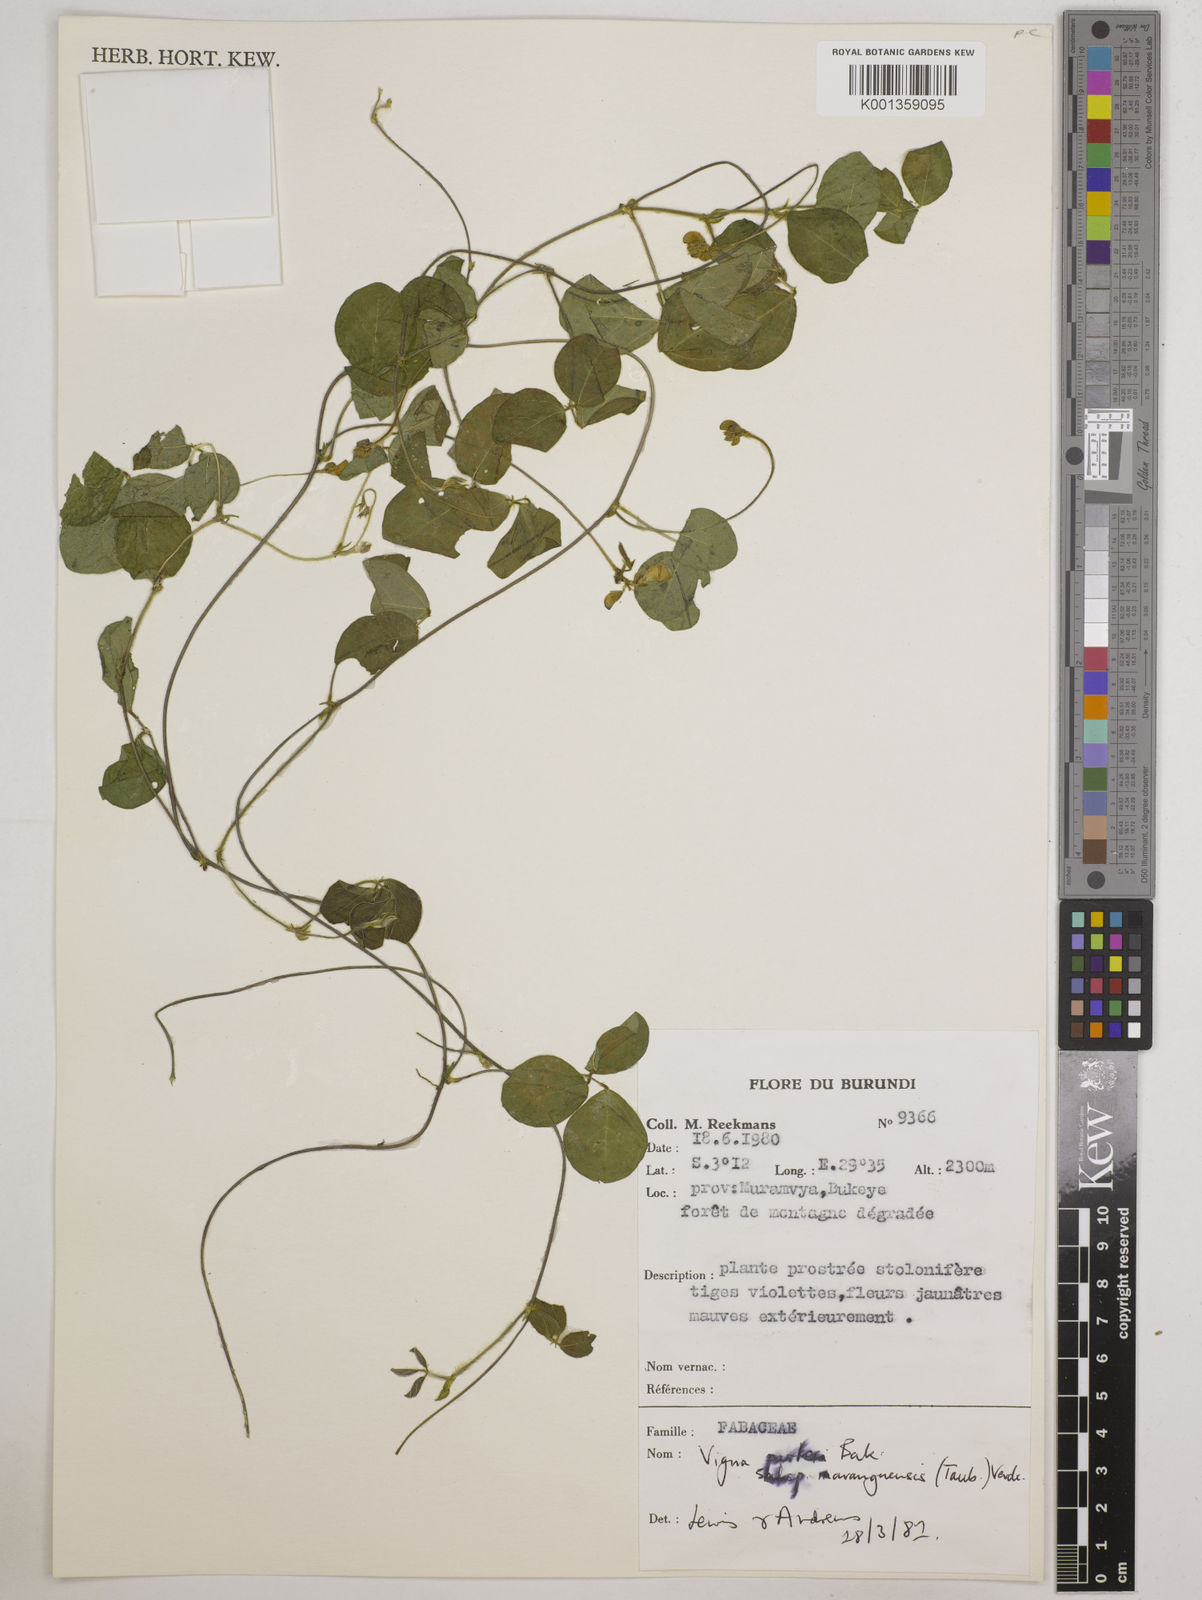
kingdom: Plantae
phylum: Tracheophyta
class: Magnoliopsida
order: Fabales
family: Fabaceae
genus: Vigna
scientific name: Vigna
